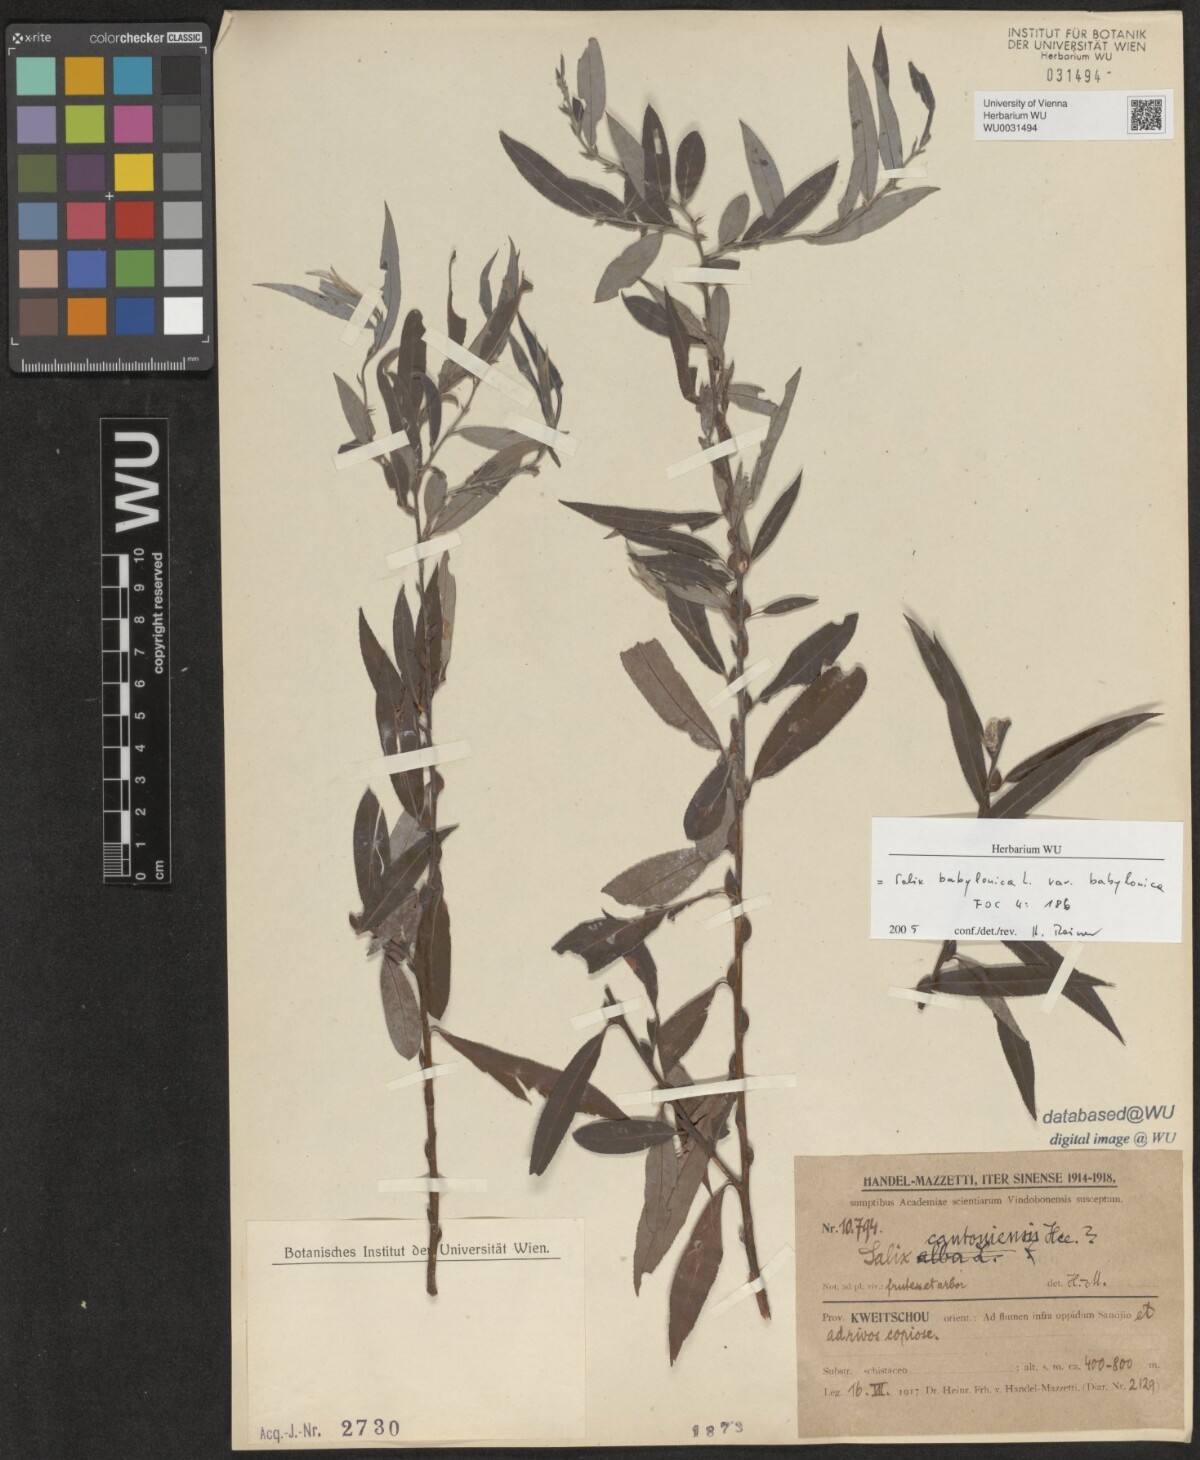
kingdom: Plantae
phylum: Tracheophyta
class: Magnoliopsida
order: Malpighiales
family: Salicaceae
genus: Salix
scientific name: Salix babylonica
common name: Weeping willow
